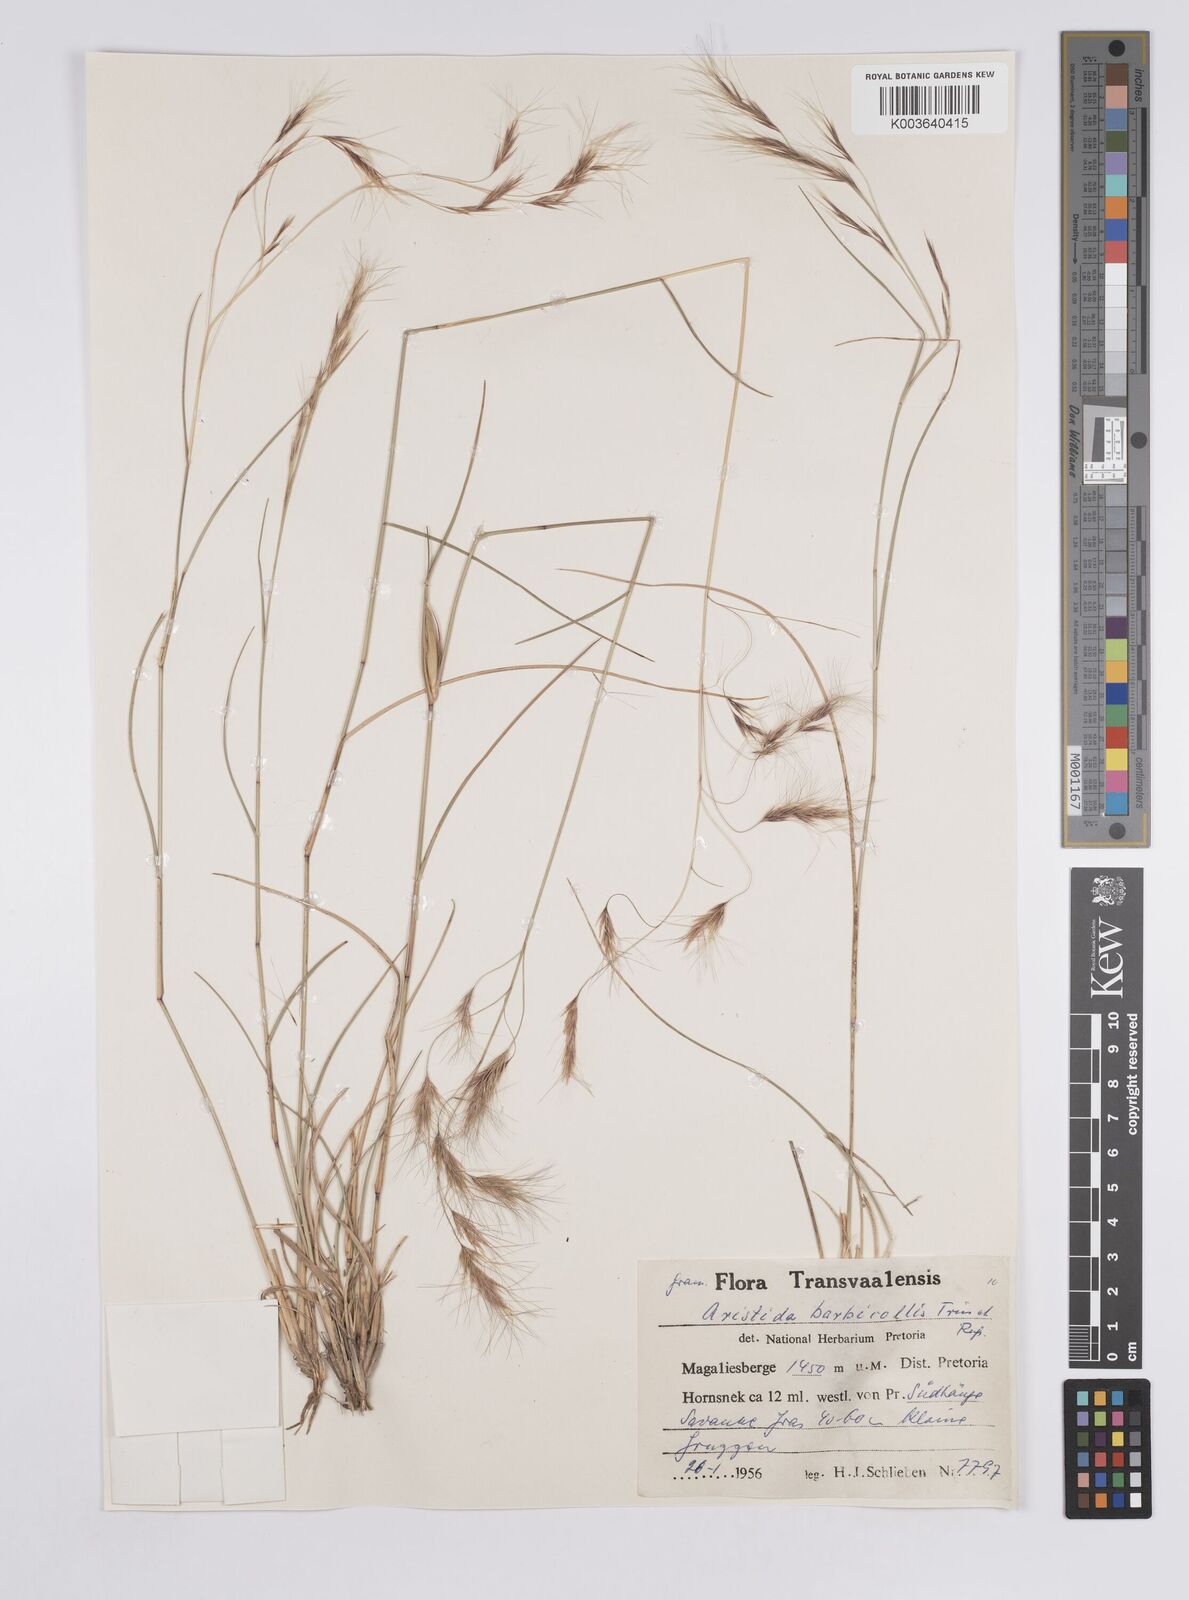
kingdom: Plantae
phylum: Tracheophyta
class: Liliopsida
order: Poales
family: Poaceae
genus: Aristida
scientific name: Aristida barbicollis
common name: Spreading prickle grass
